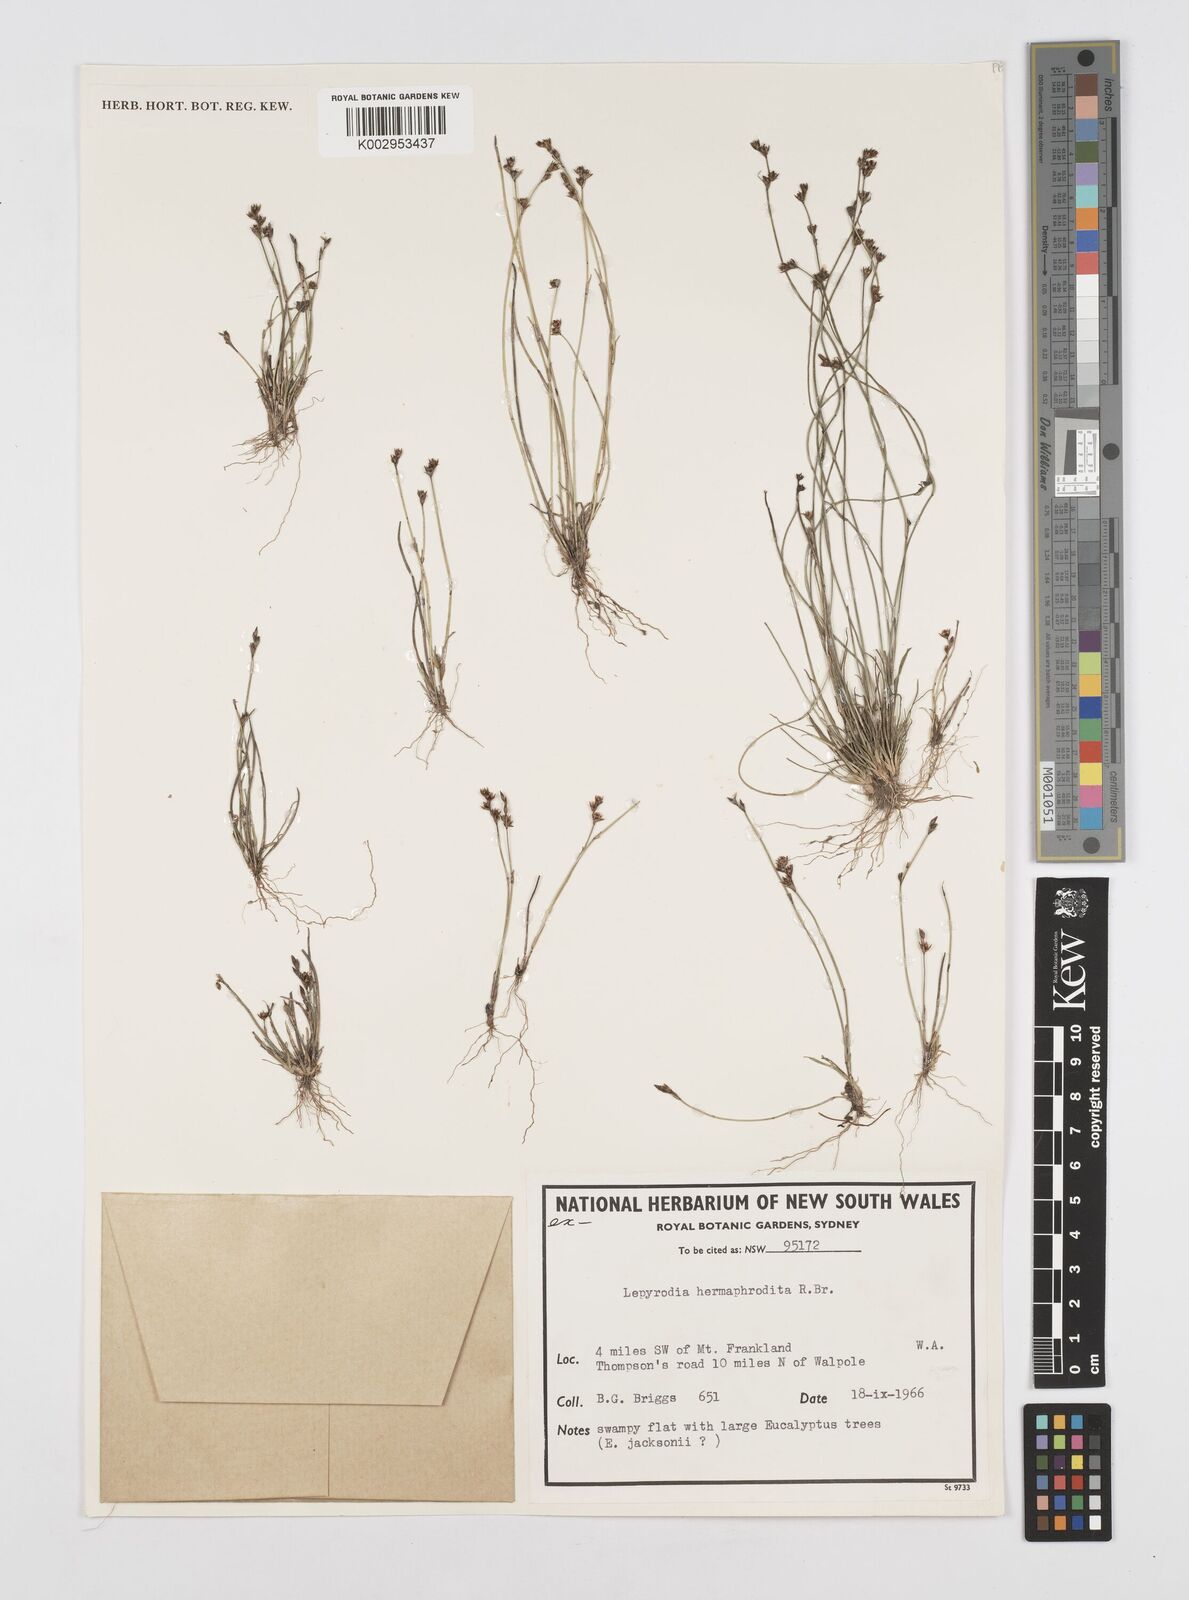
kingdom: Plantae
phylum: Tracheophyta
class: Liliopsida
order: Poales
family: Restionaceae
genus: Lepyrodia
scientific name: Lepyrodia hermaphrodita
